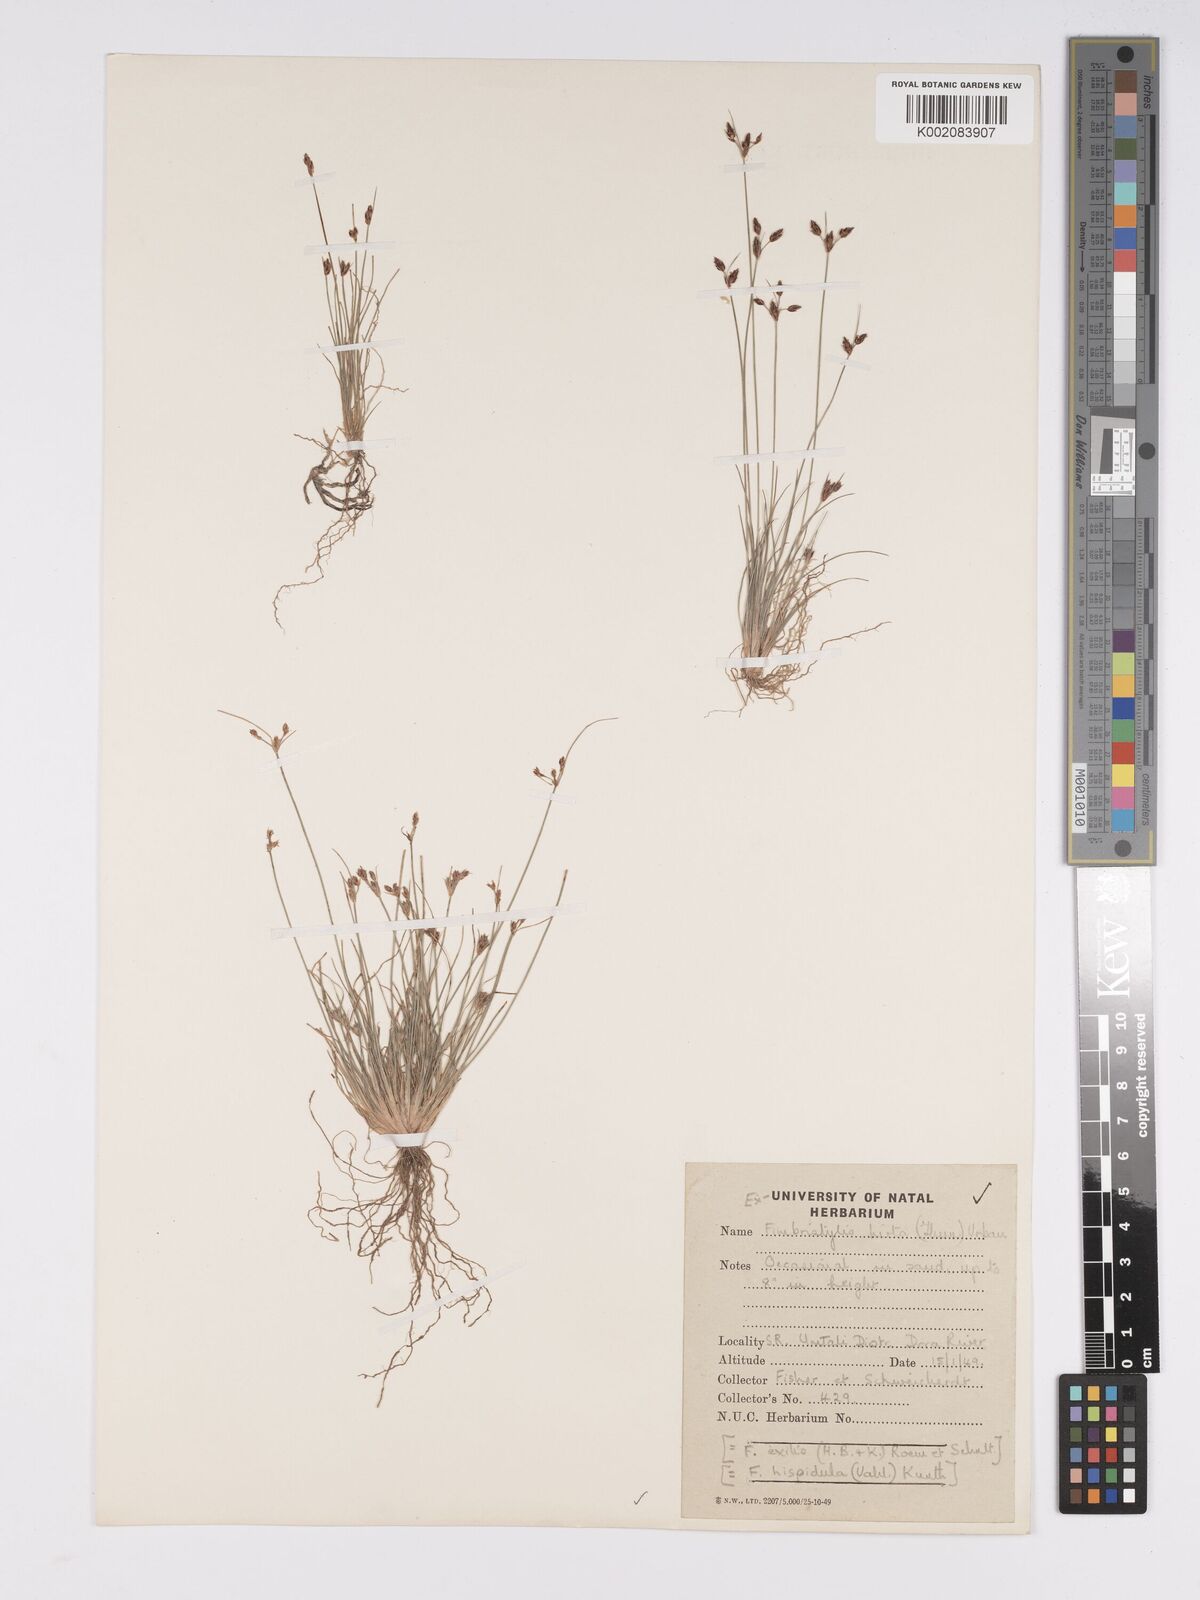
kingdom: Plantae
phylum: Tracheophyta
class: Liliopsida
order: Poales
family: Cyperaceae
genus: Bulbostylis
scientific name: Bulbostylis hispidula
